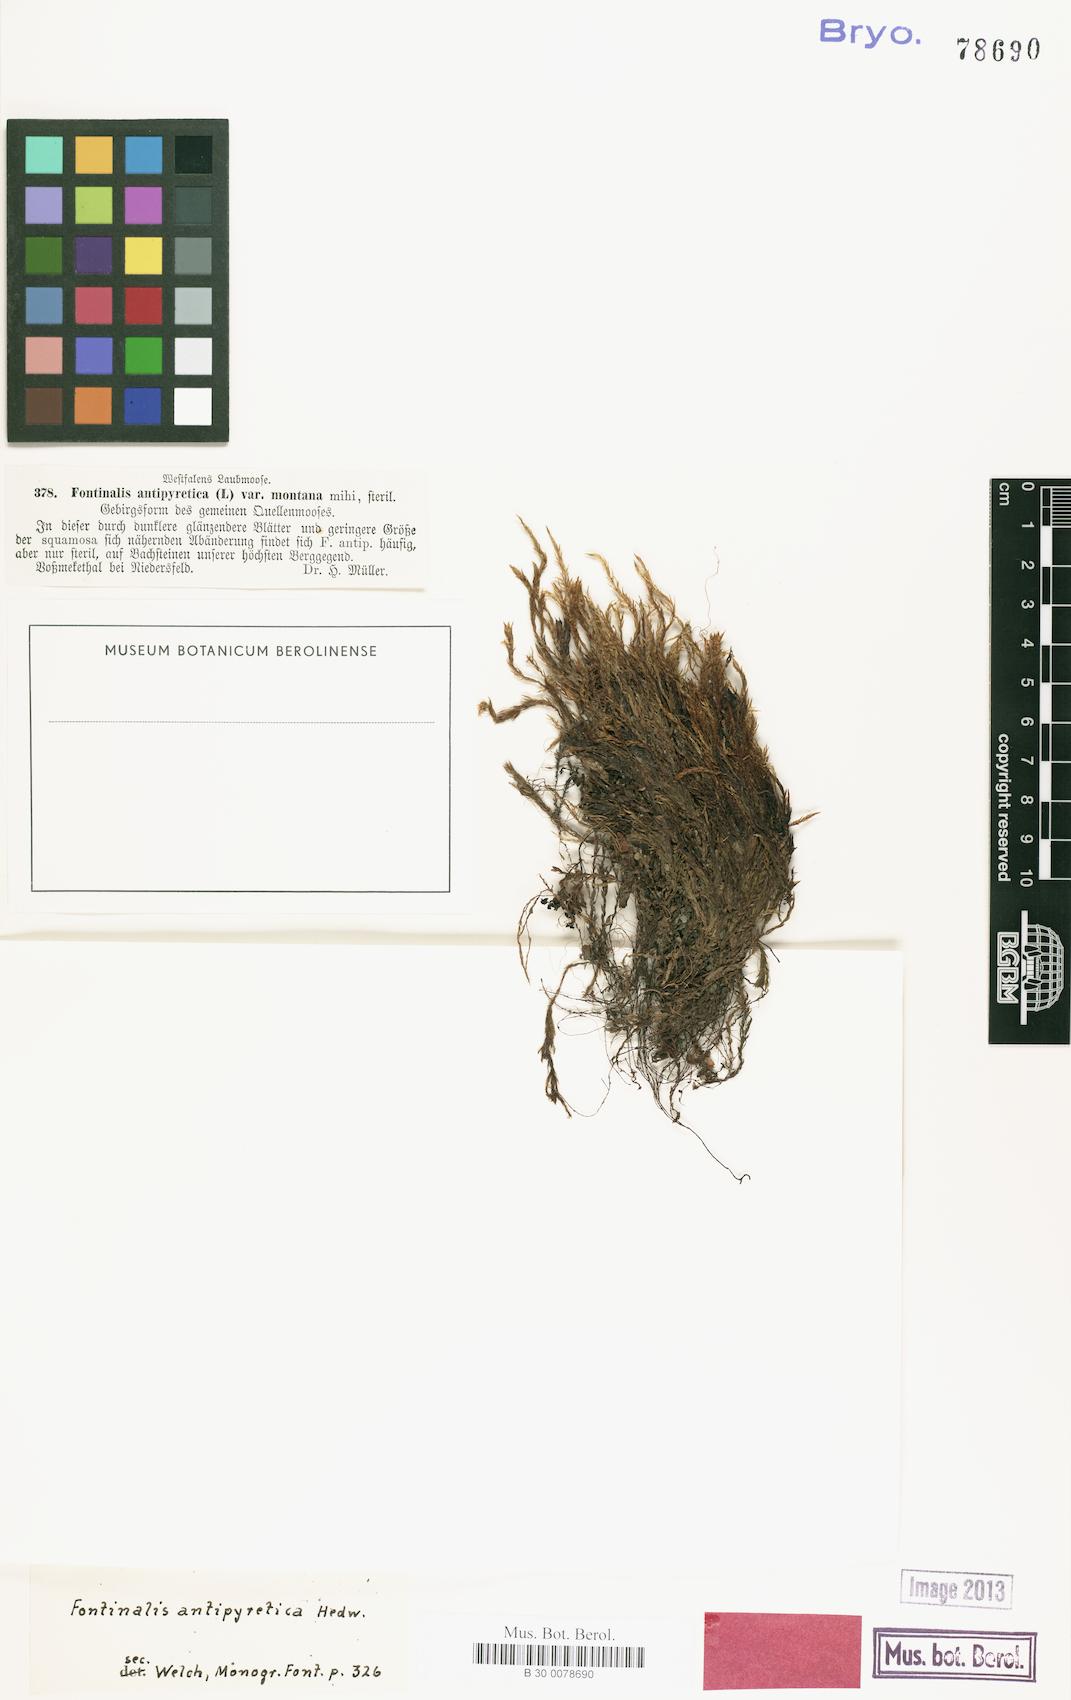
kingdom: Plantae
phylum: Bryophyta
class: Bryopsida
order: Hypnales
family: Fontinalaceae
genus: Fontinalis
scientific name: Fontinalis antipyretica
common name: Greater water-moss
